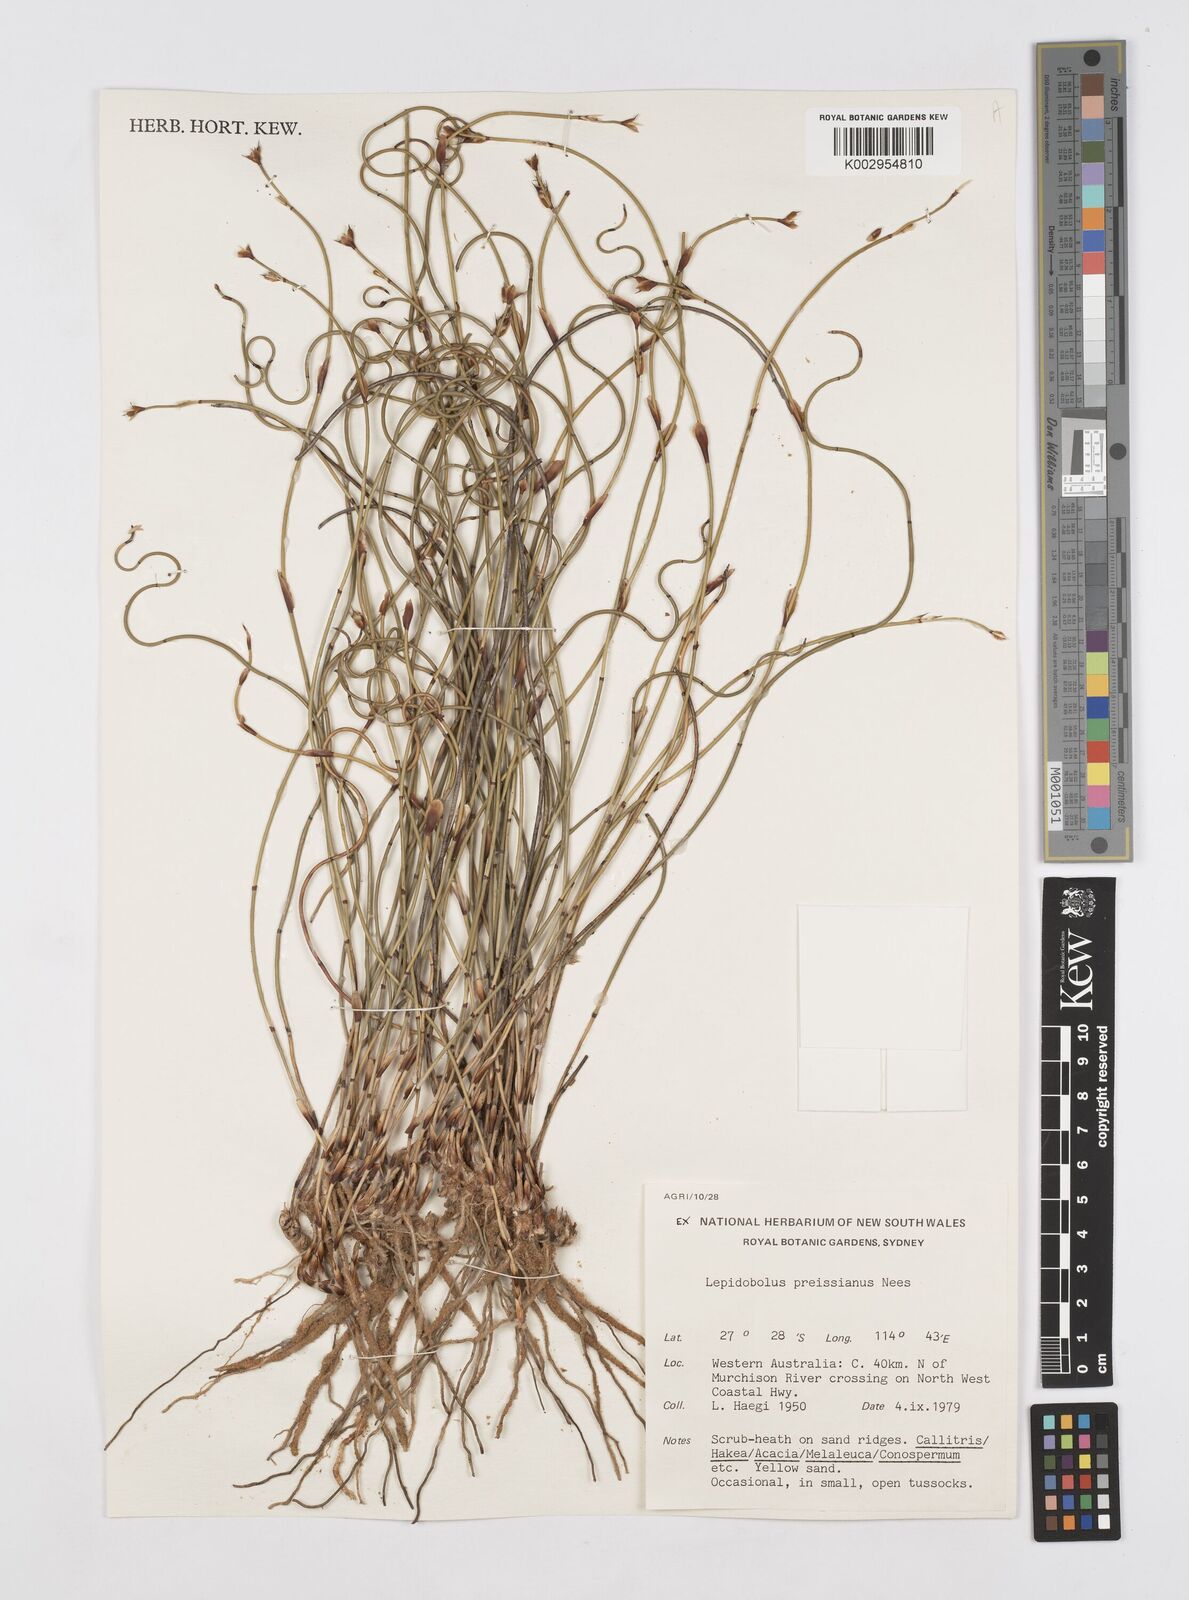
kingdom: Plantae
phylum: Tracheophyta
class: Liliopsida
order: Poales
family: Restionaceae
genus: Lepidobolus
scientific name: Lepidobolus preissianus
